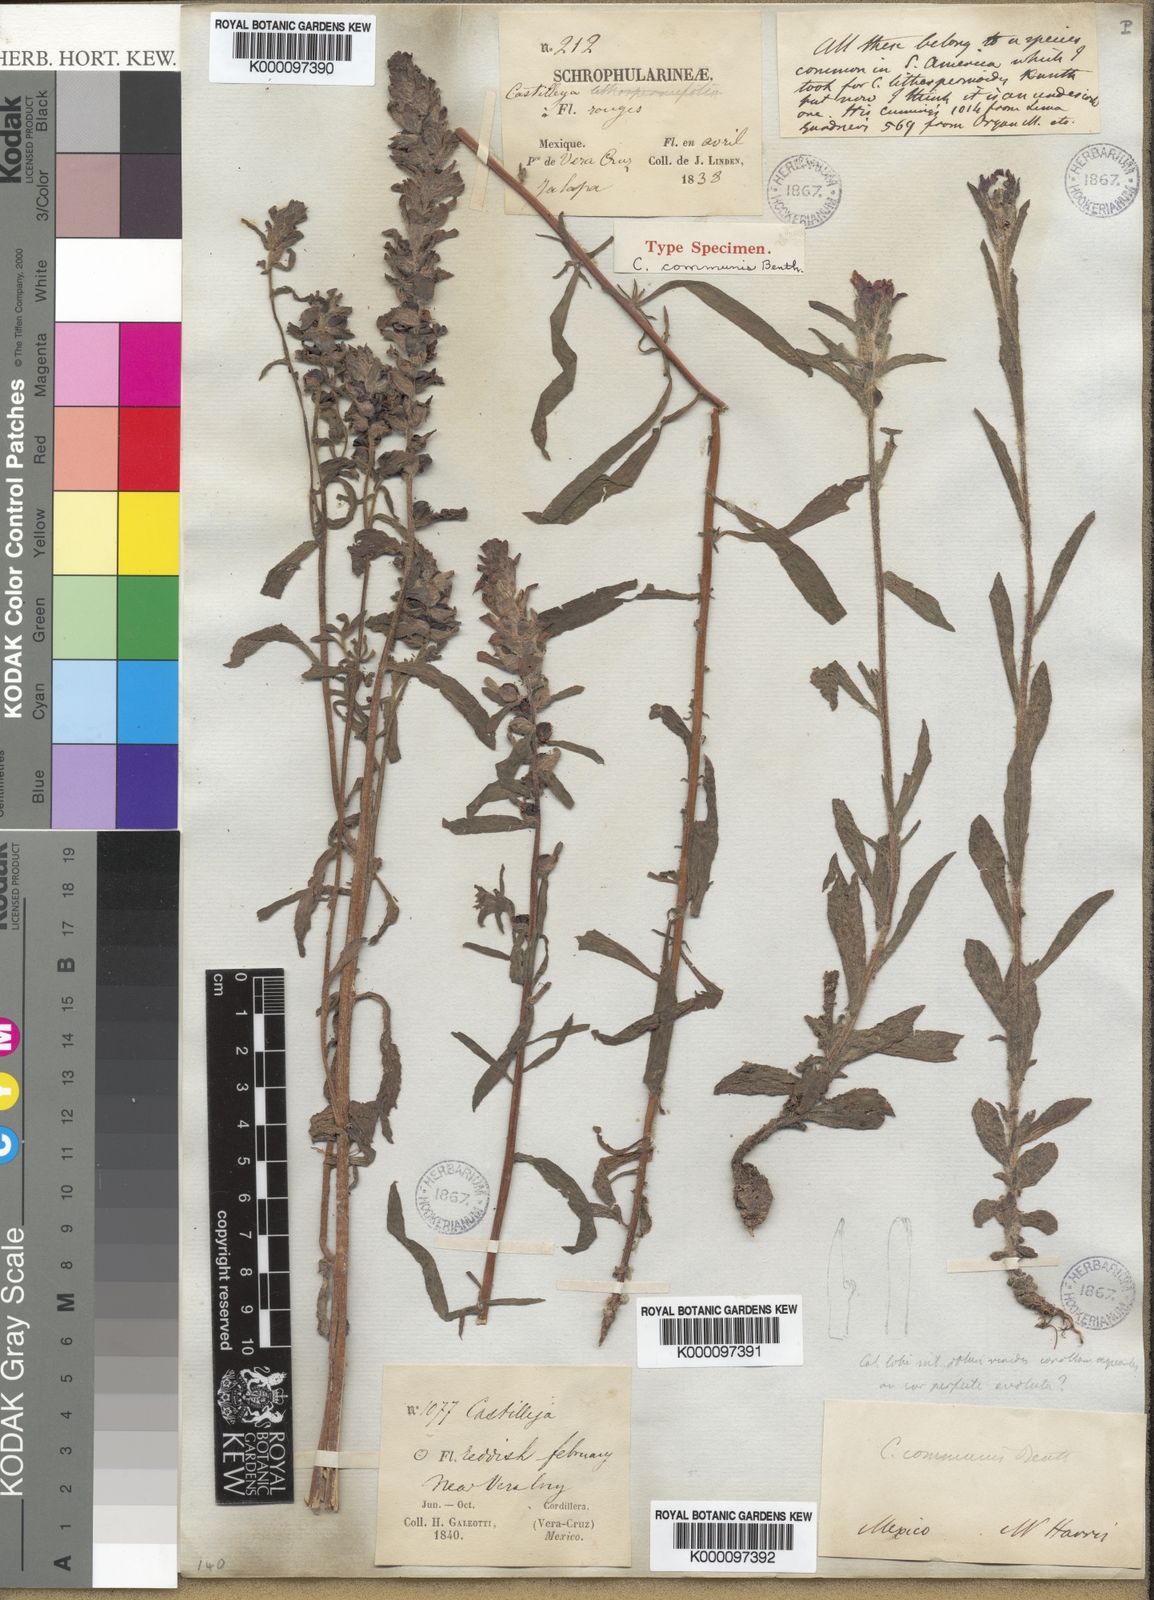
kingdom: Plantae
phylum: Tracheophyta
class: Magnoliopsida
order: Lamiales
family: Orobanchaceae
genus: Castilleja
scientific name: Castilleja arvensis
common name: Indian paintbrush
